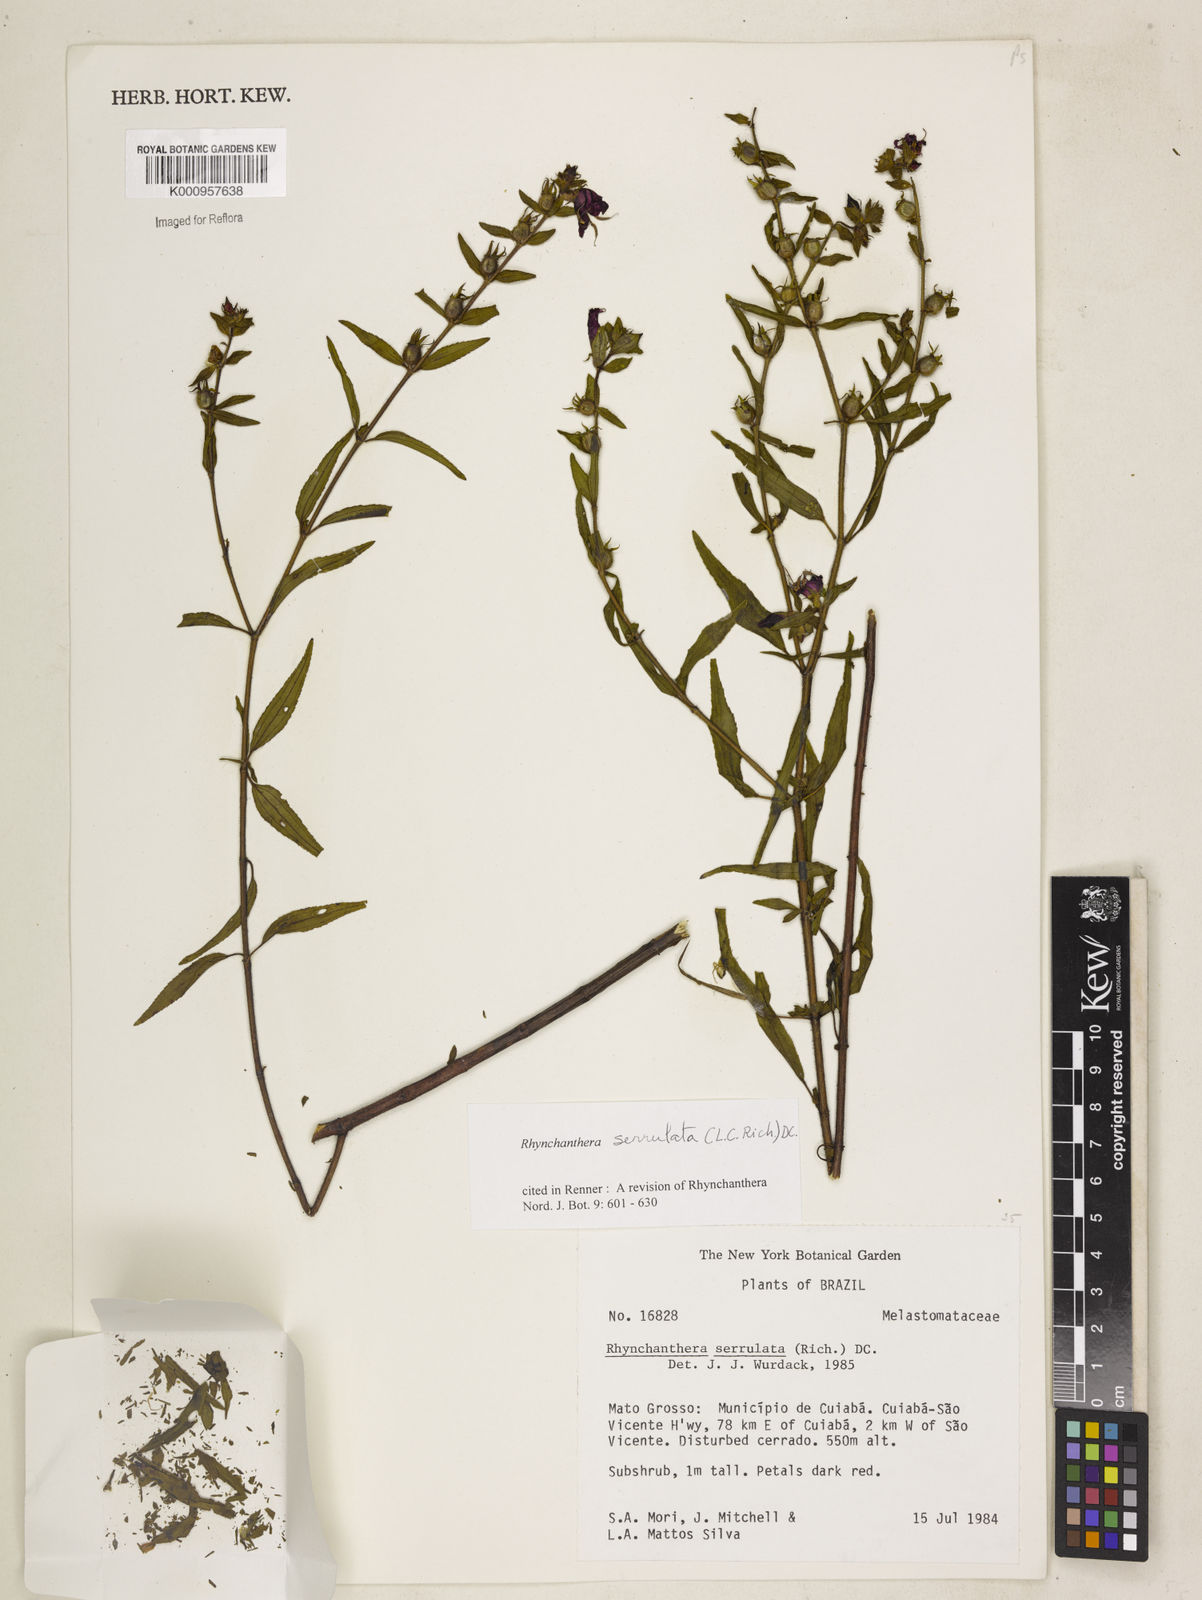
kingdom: Plantae
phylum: Tracheophyta
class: Magnoliopsida
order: Myrtales
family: Melastomataceae
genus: Rhynchanthera
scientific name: Rhynchanthera serrulata
